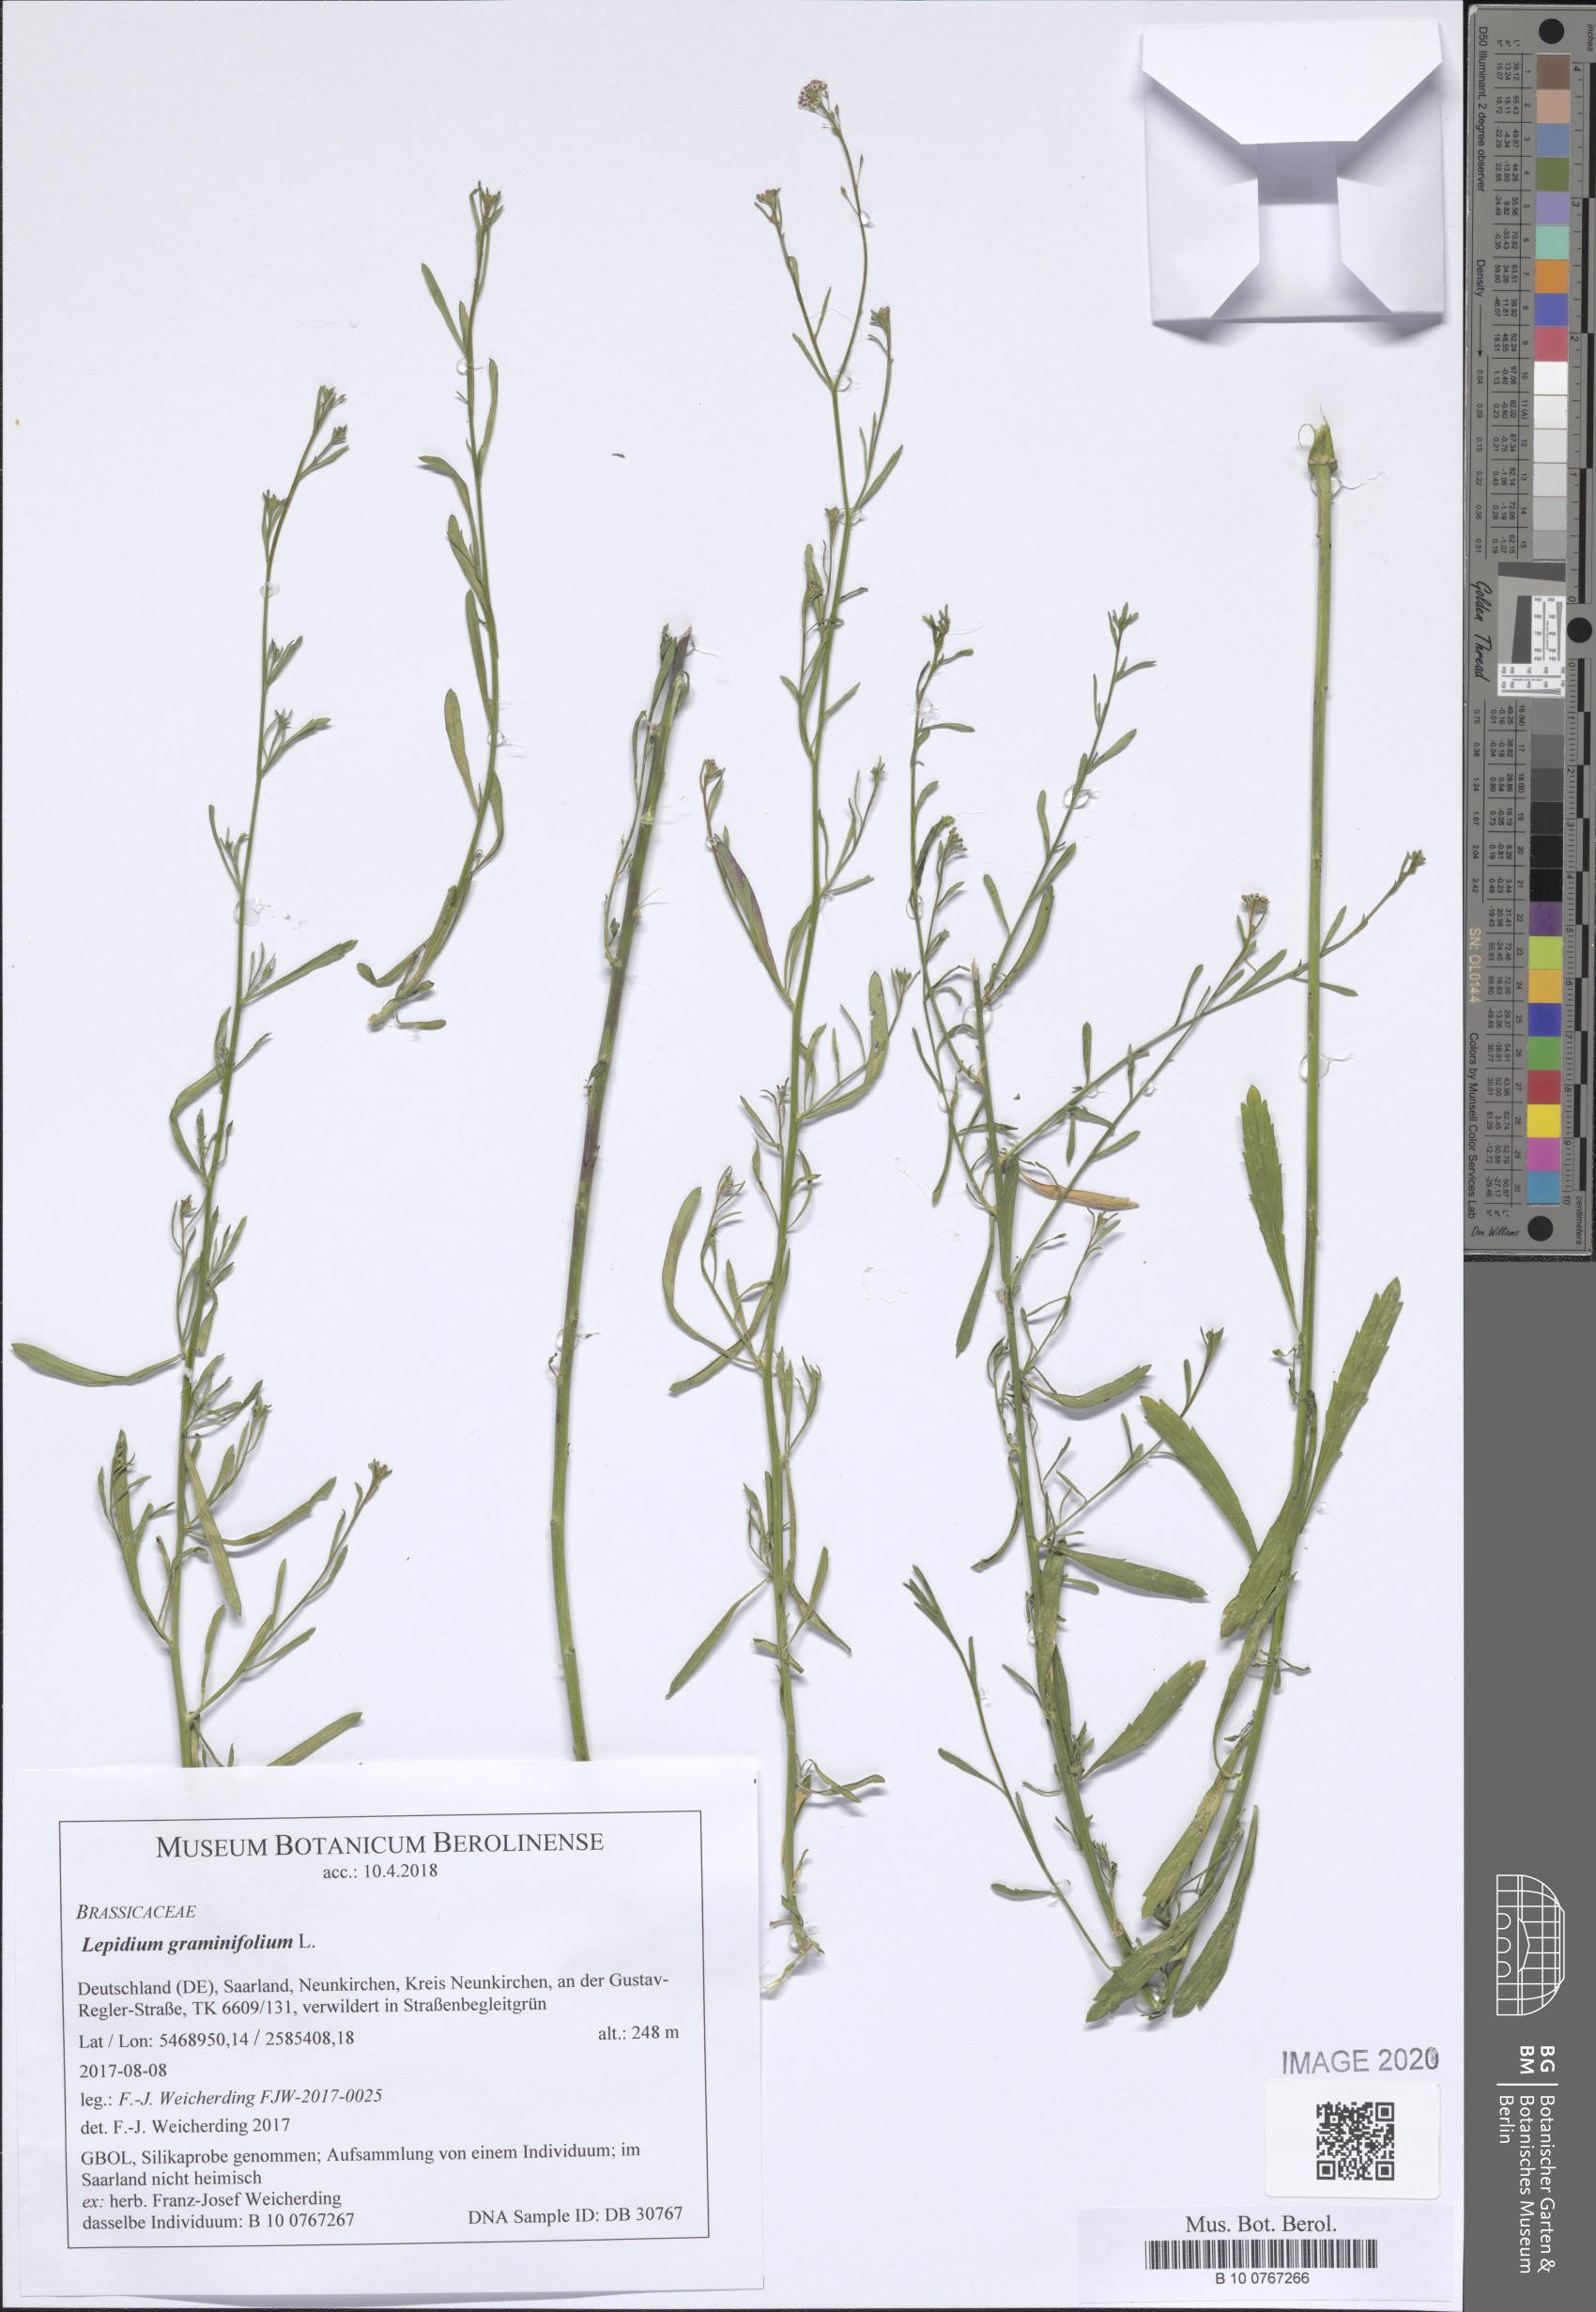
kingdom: Plantae
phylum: Tracheophyta
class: Magnoliopsida
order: Brassicales
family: Brassicaceae
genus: Lepidium
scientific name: Lepidium graminifolium
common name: Tall pepperwort
